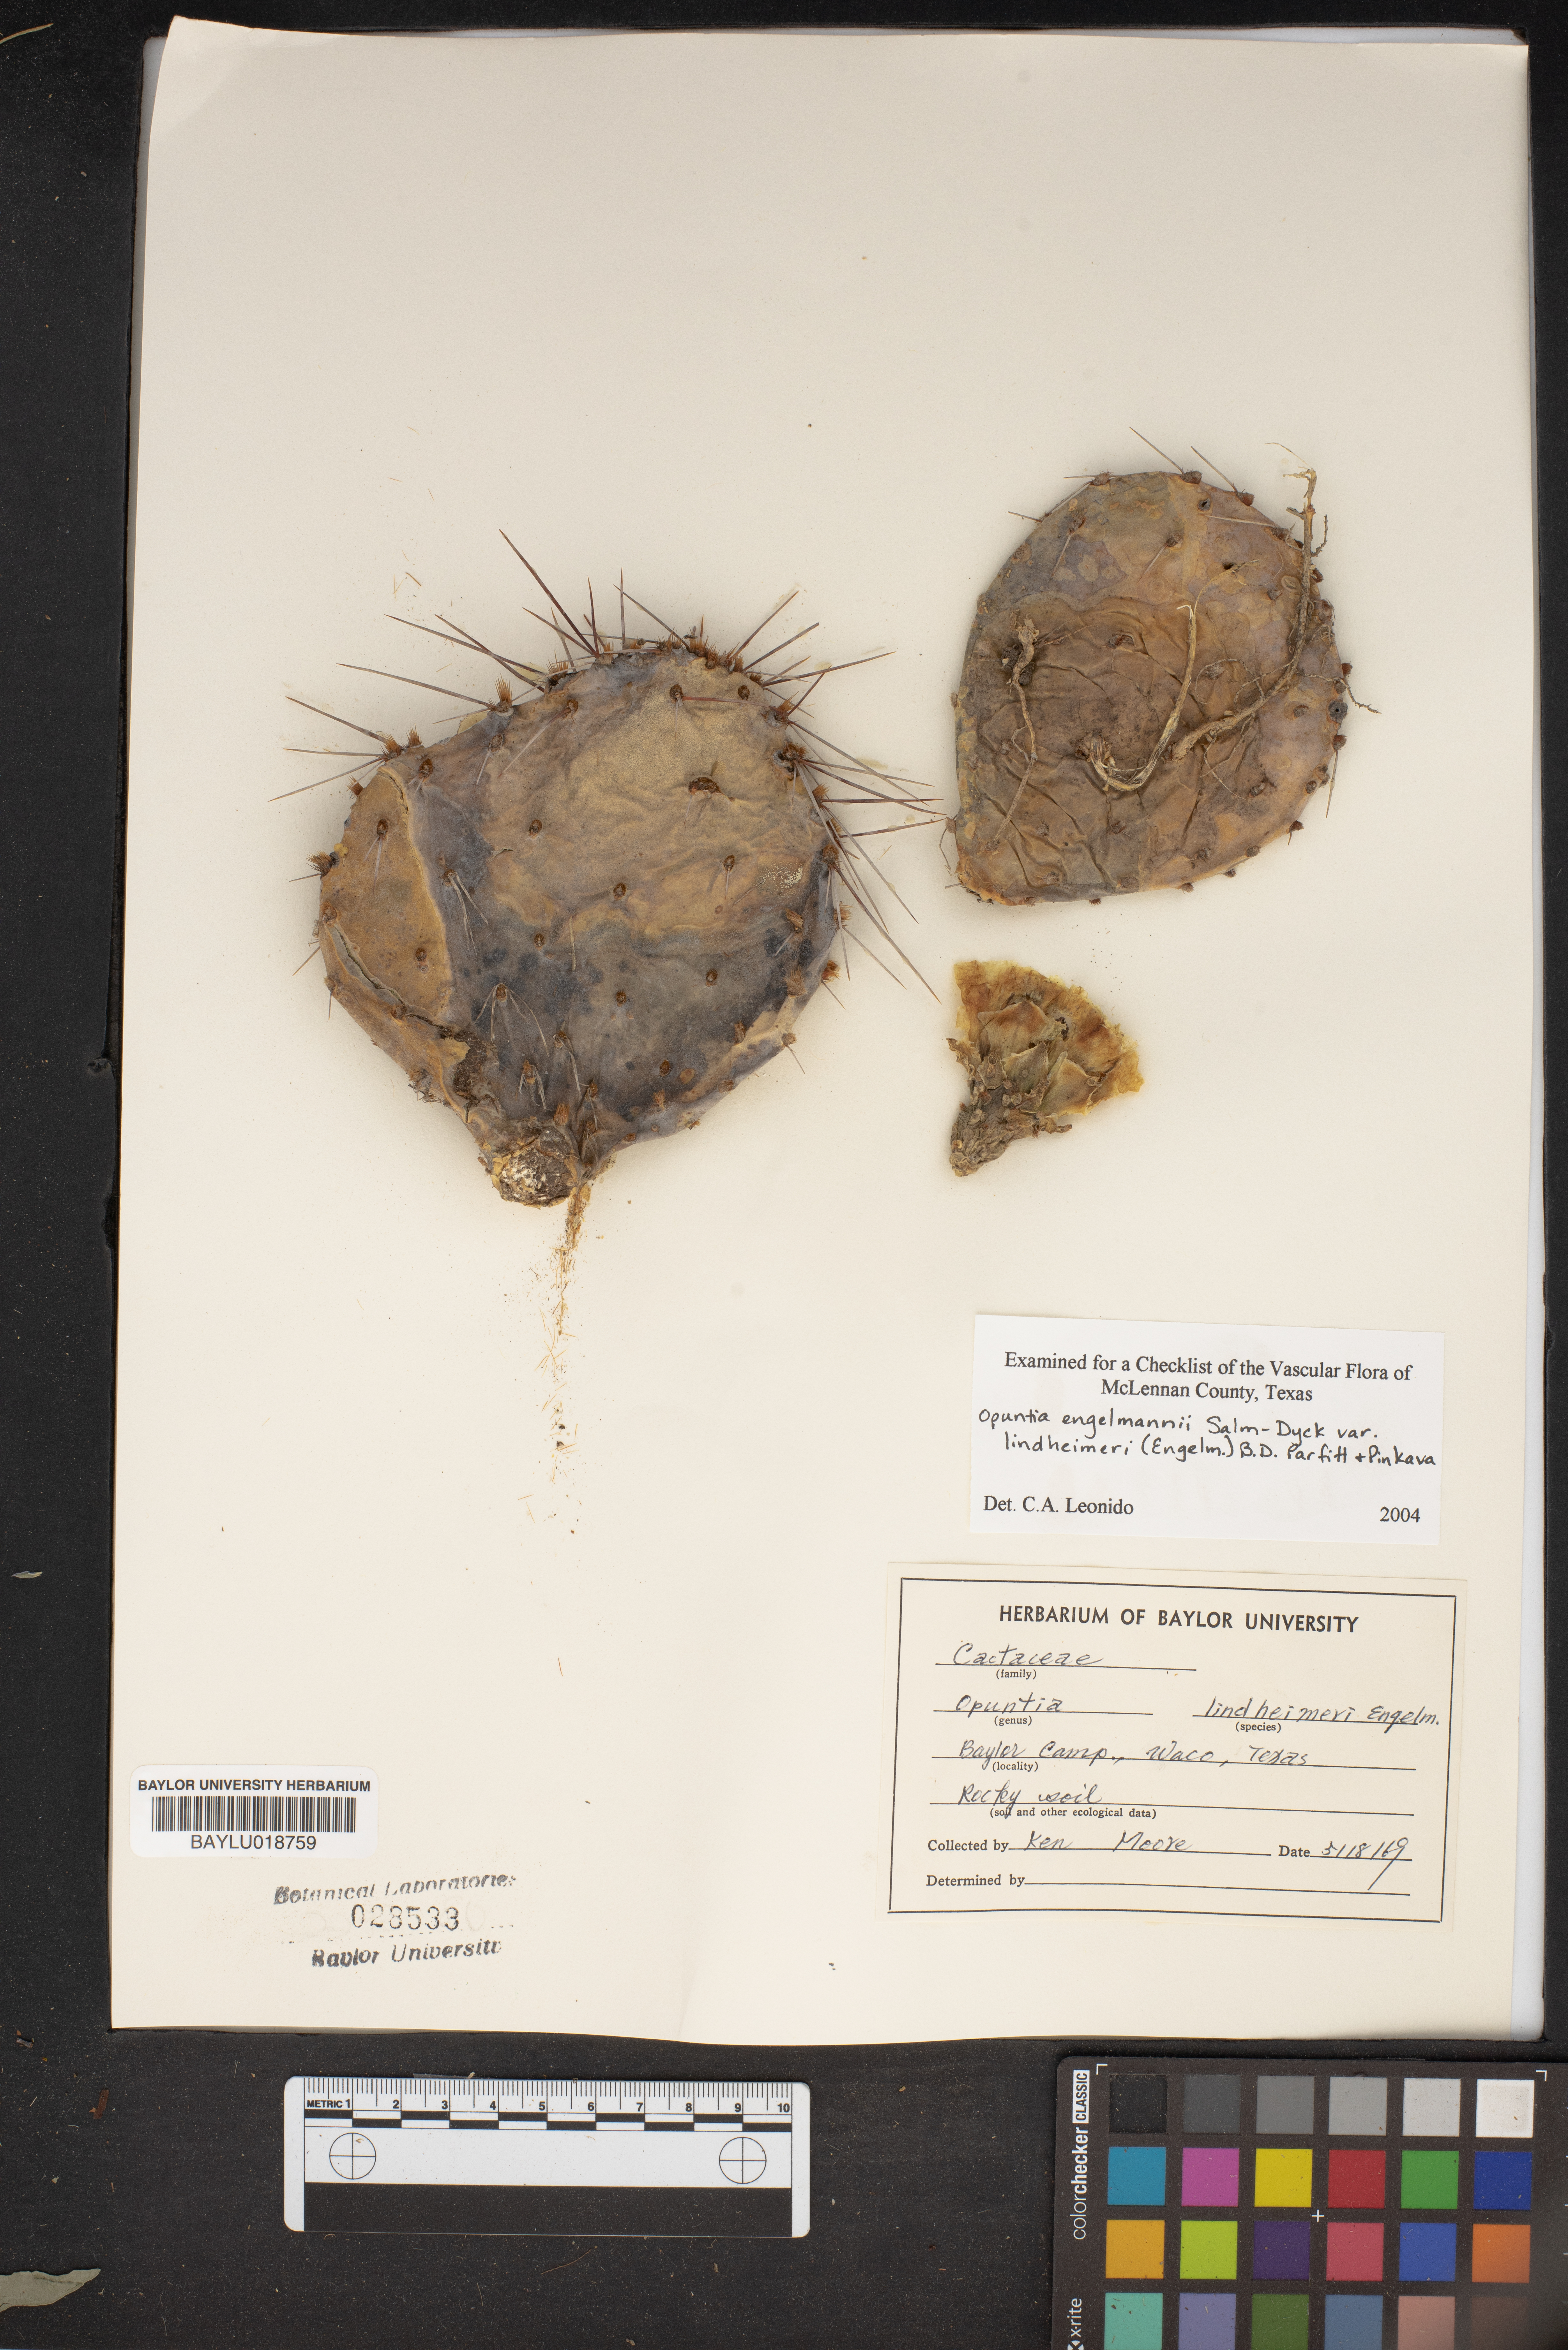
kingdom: Plantae
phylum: Tracheophyta
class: Magnoliopsida
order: Caryophyllales
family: Cactaceae
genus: Opuntia
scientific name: Opuntia engelmannii
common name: Cactus-apple
